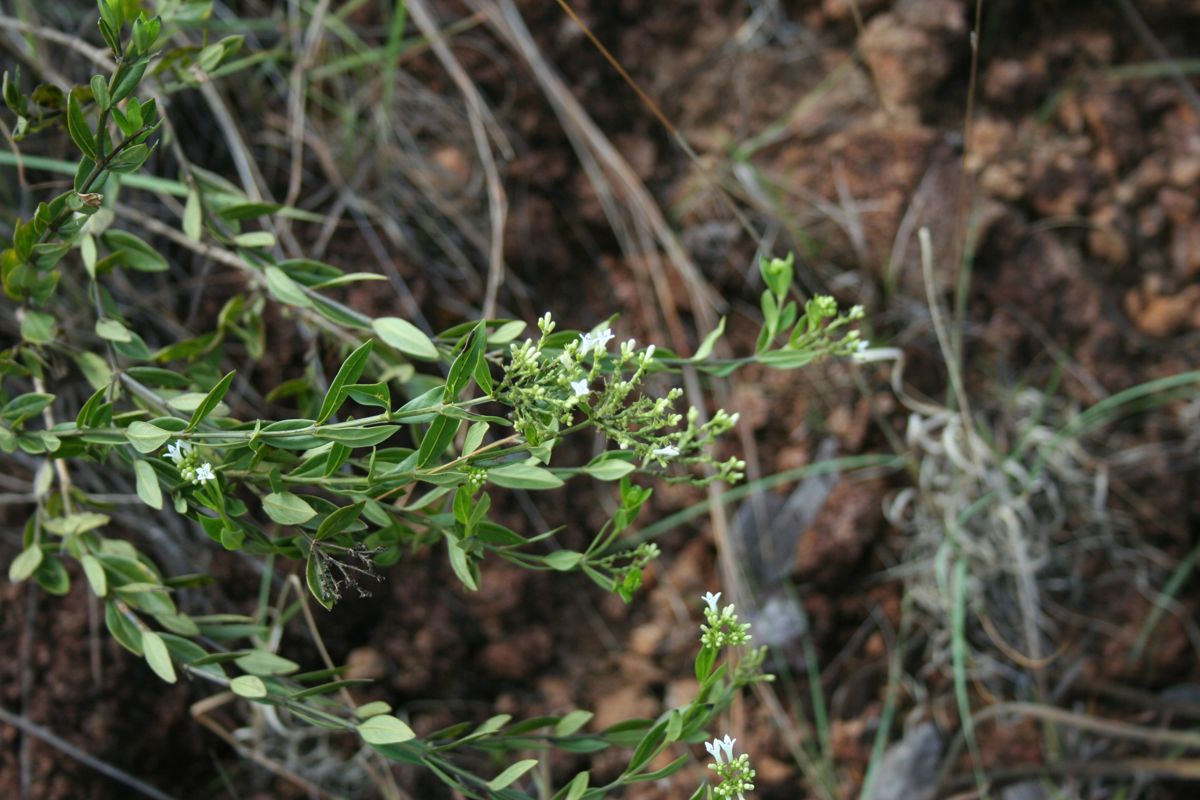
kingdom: Plantae
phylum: Tracheophyta
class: Magnoliopsida
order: Gentianales
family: Rubiaceae
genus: Declieuxia
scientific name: Declieuxia fruticosa
